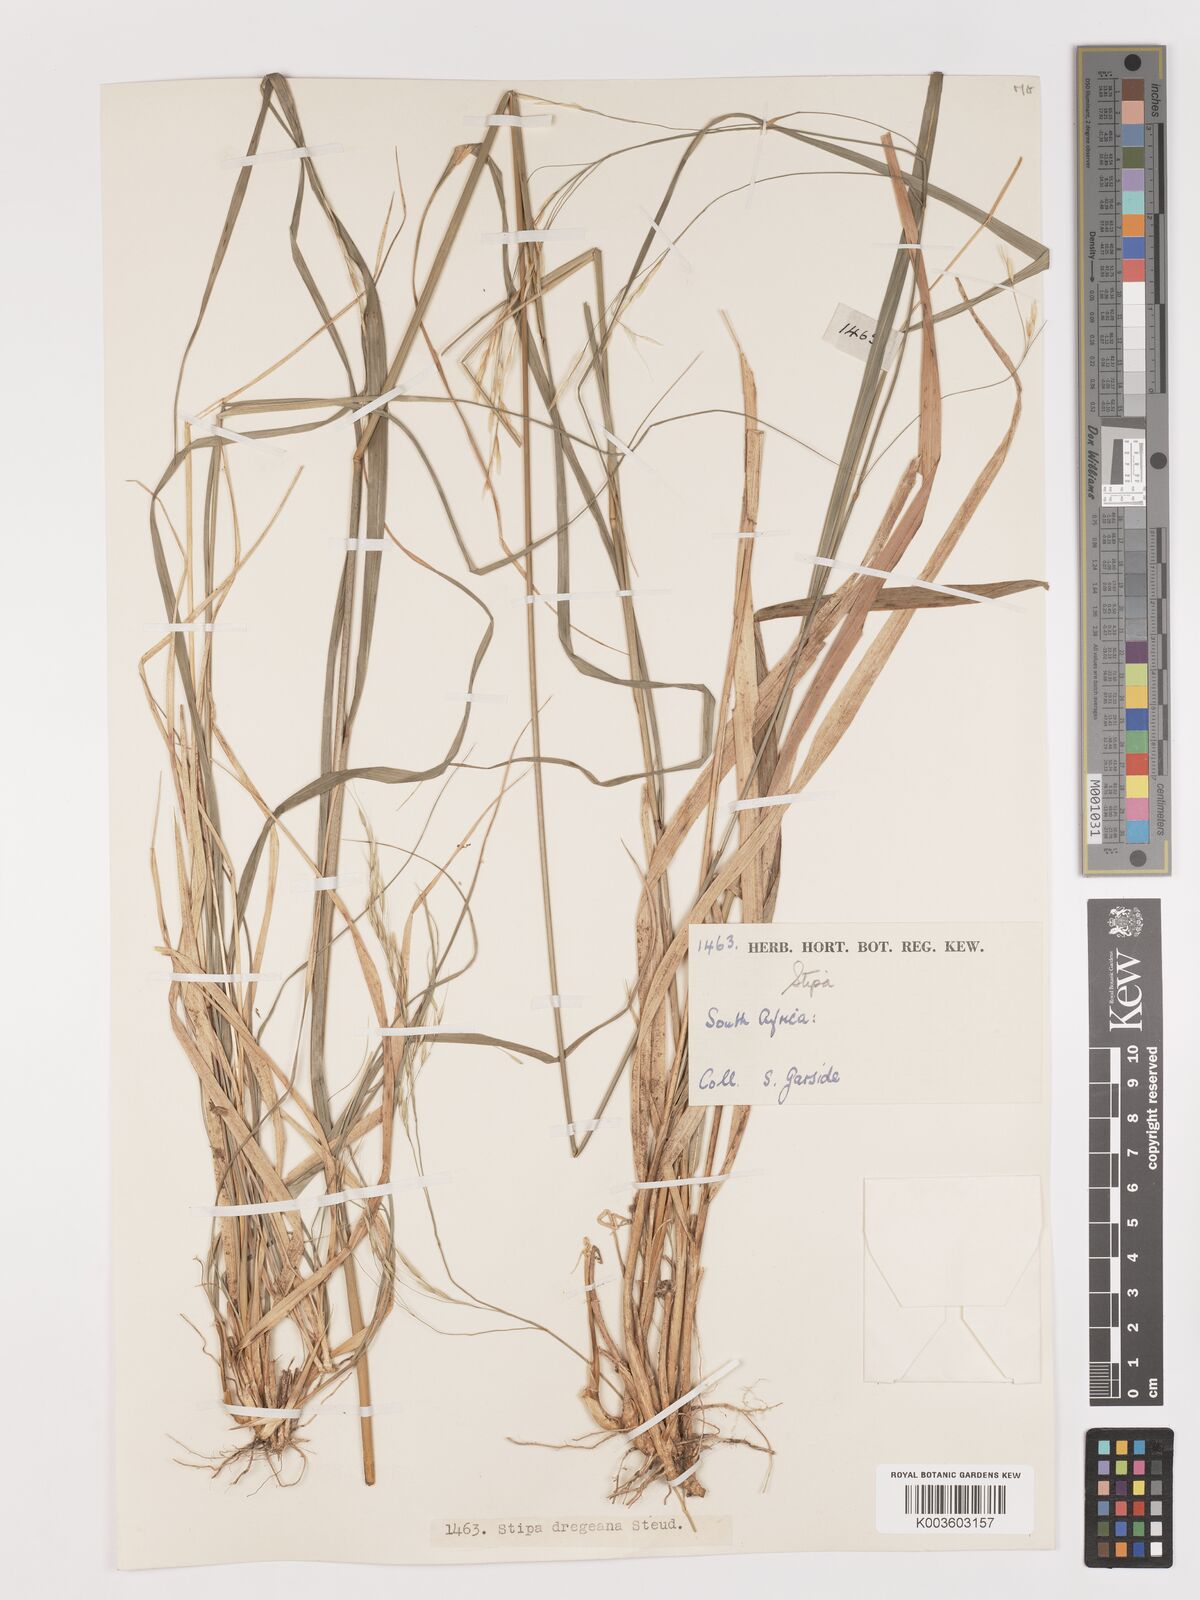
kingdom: Plantae
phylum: Tracheophyta
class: Liliopsida
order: Poales
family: Poaceae
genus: Stipa
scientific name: Stipa dregeana
